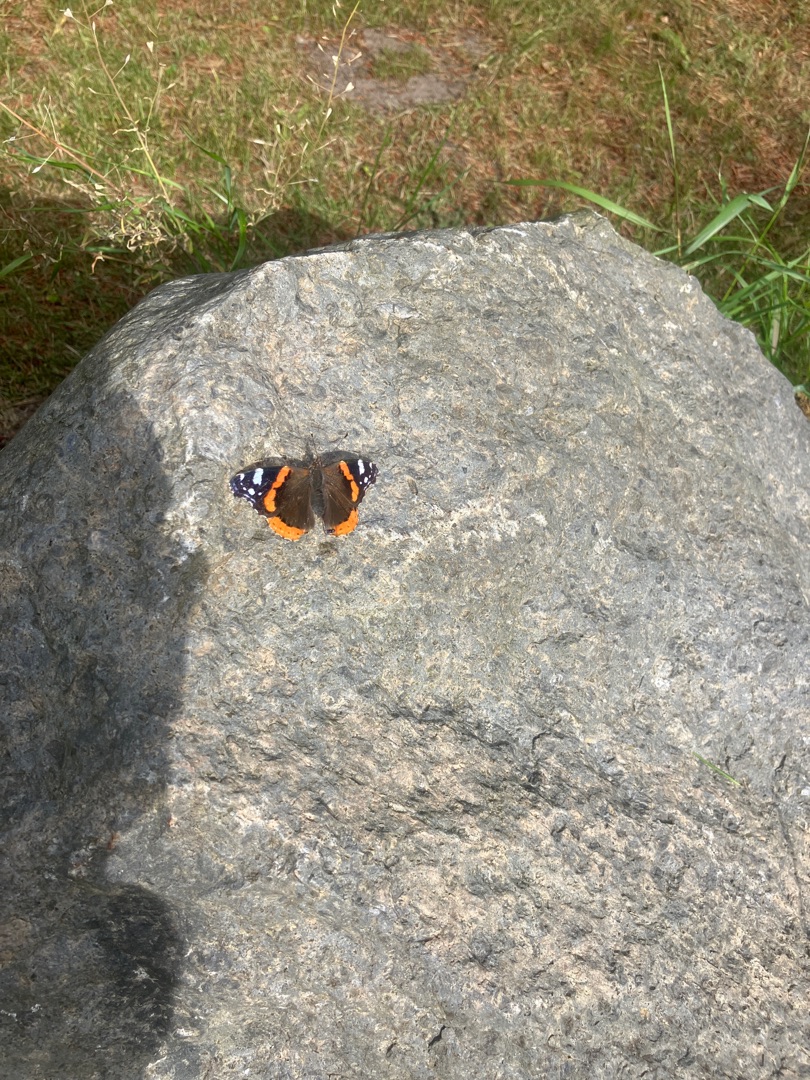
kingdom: Animalia
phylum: Arthropoda
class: Insecta
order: Lepidoptera
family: Nymphalidae
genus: Vanessa
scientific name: Vanessa atalanta
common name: Admiral
